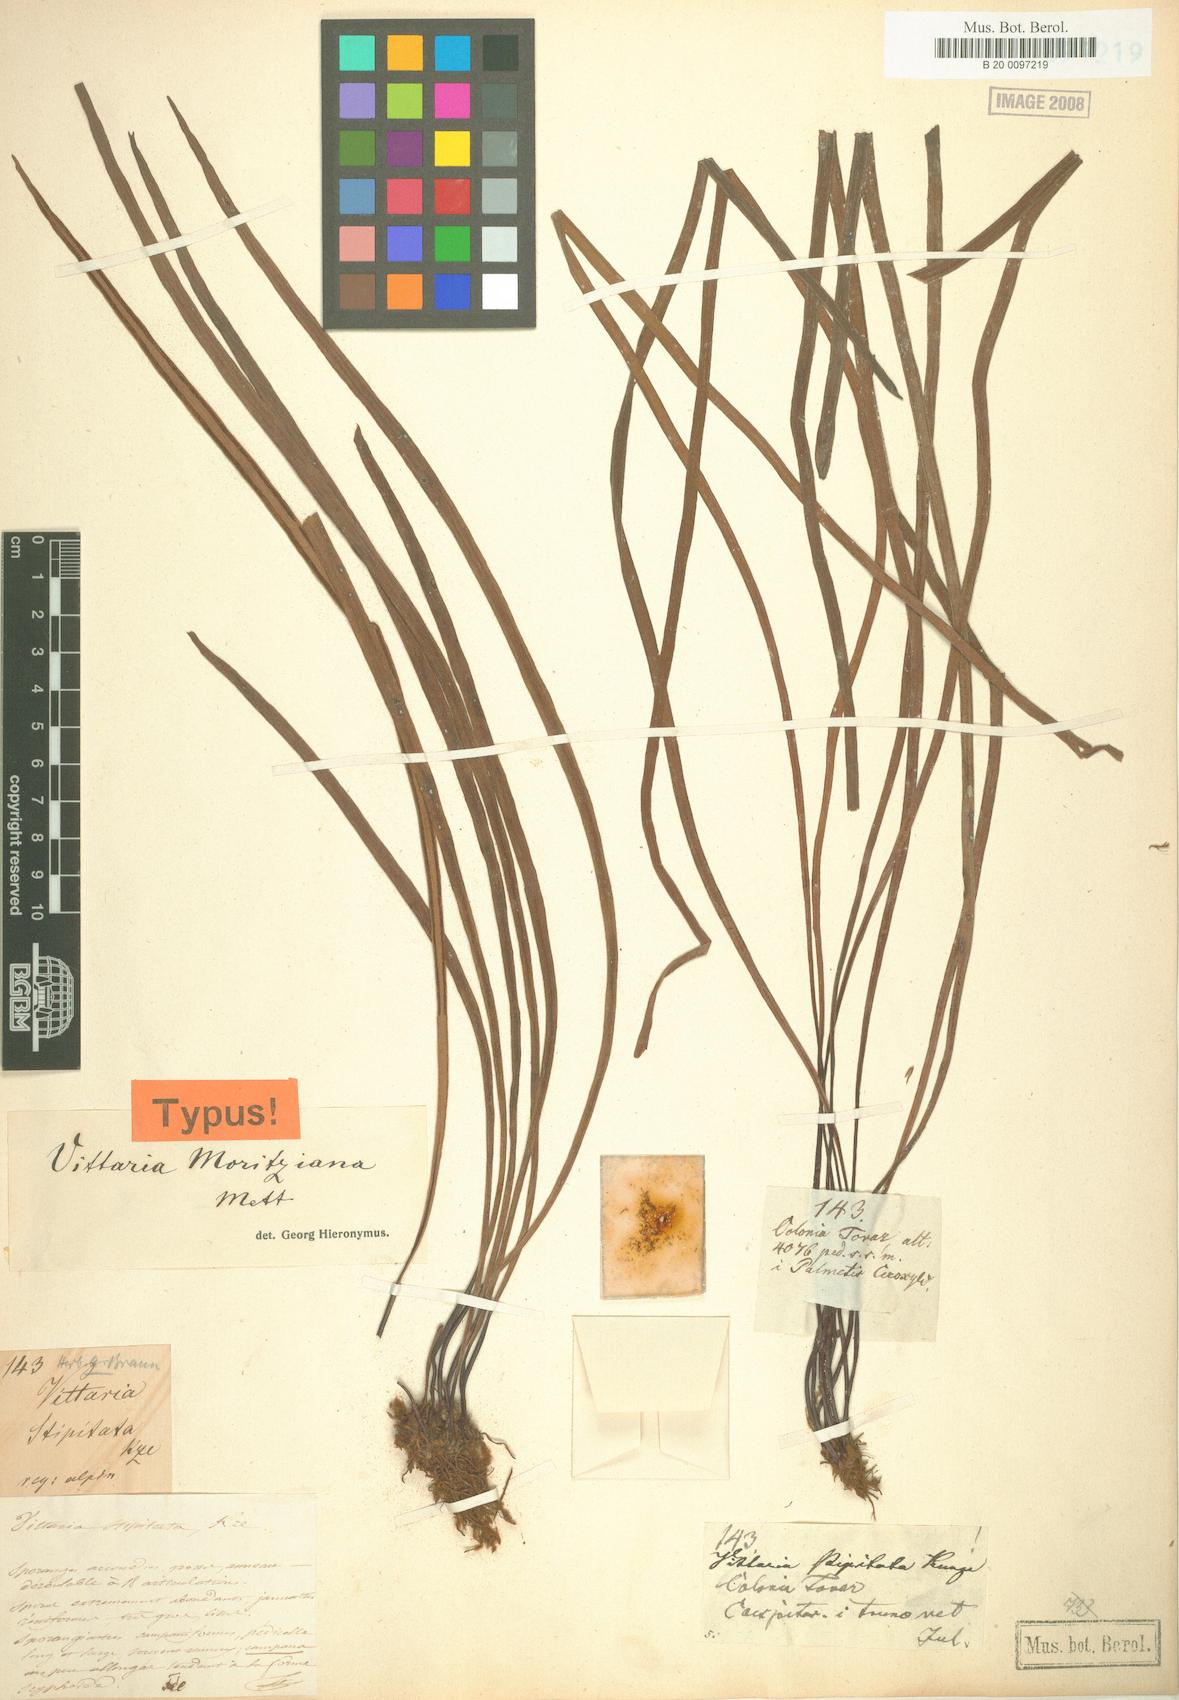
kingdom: Plantae
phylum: Tracheophyta
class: Polypodiopsida
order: Polypodiales
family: Pteridaceae
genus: Radiovittaria
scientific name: Radiovittaria moritziana
